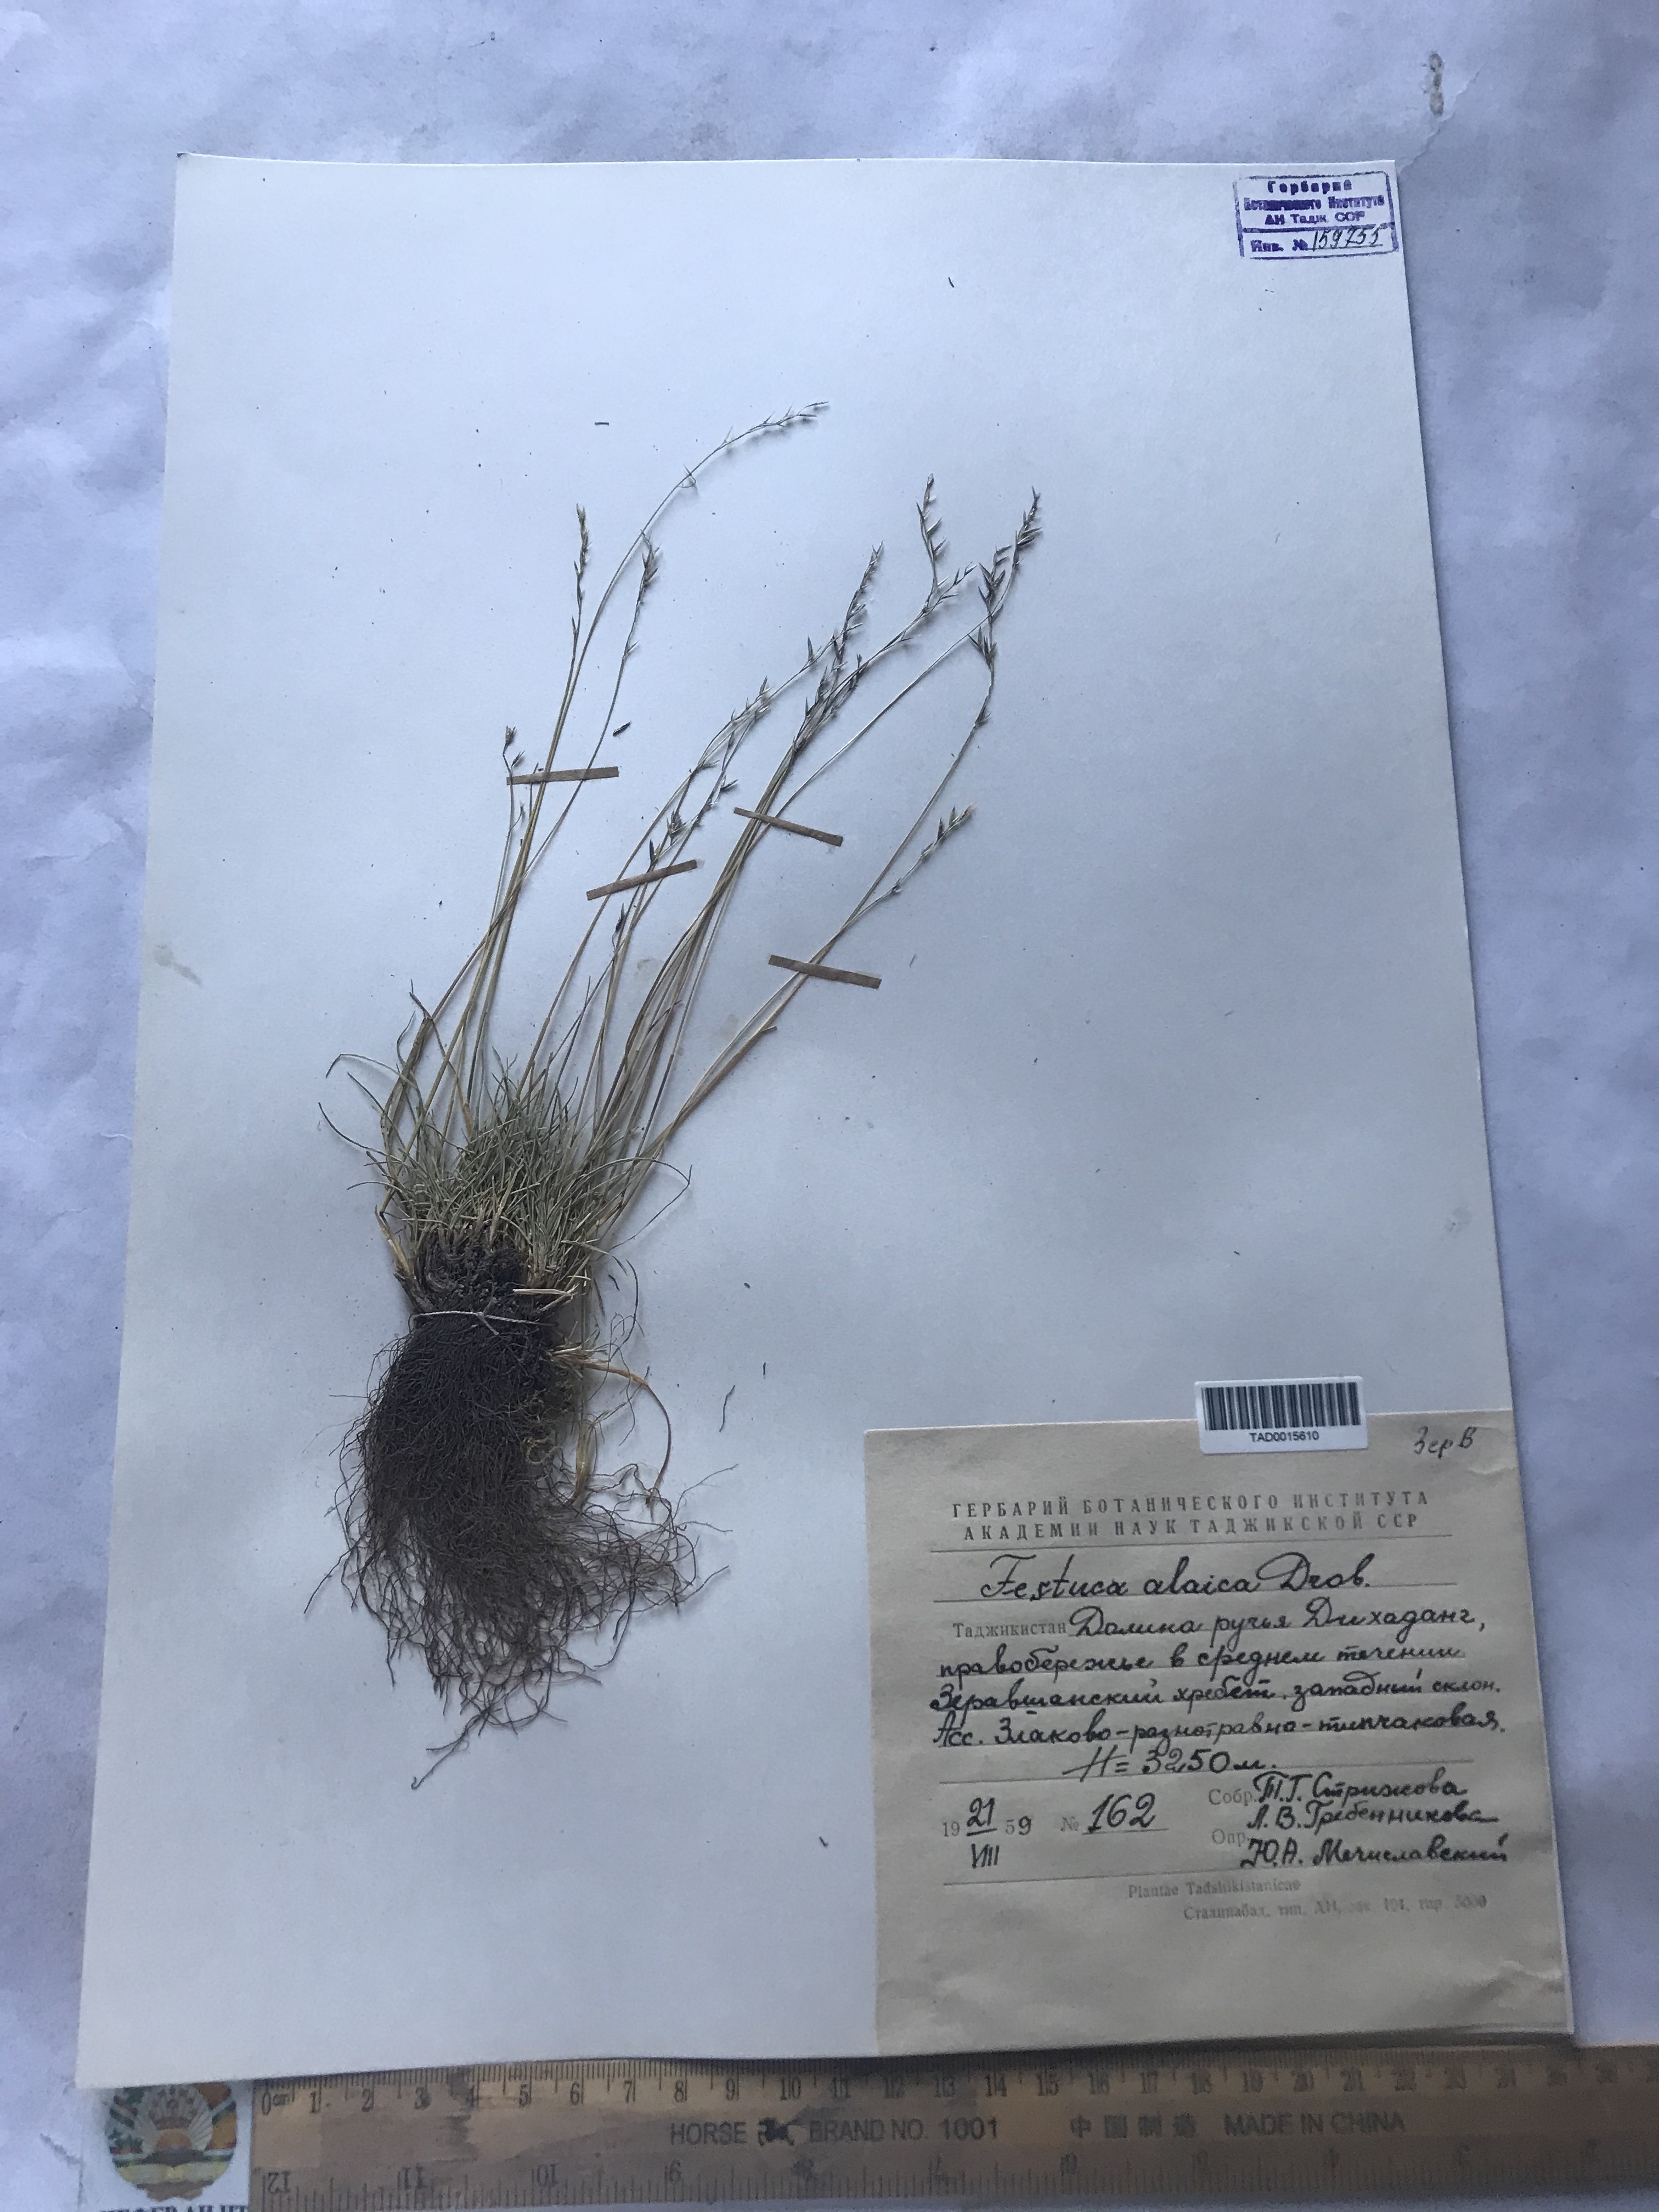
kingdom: Plantae
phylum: Tracheophyta
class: Liliopsida
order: Poales
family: Poaceae
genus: Festuca
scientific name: Festuca alaica
